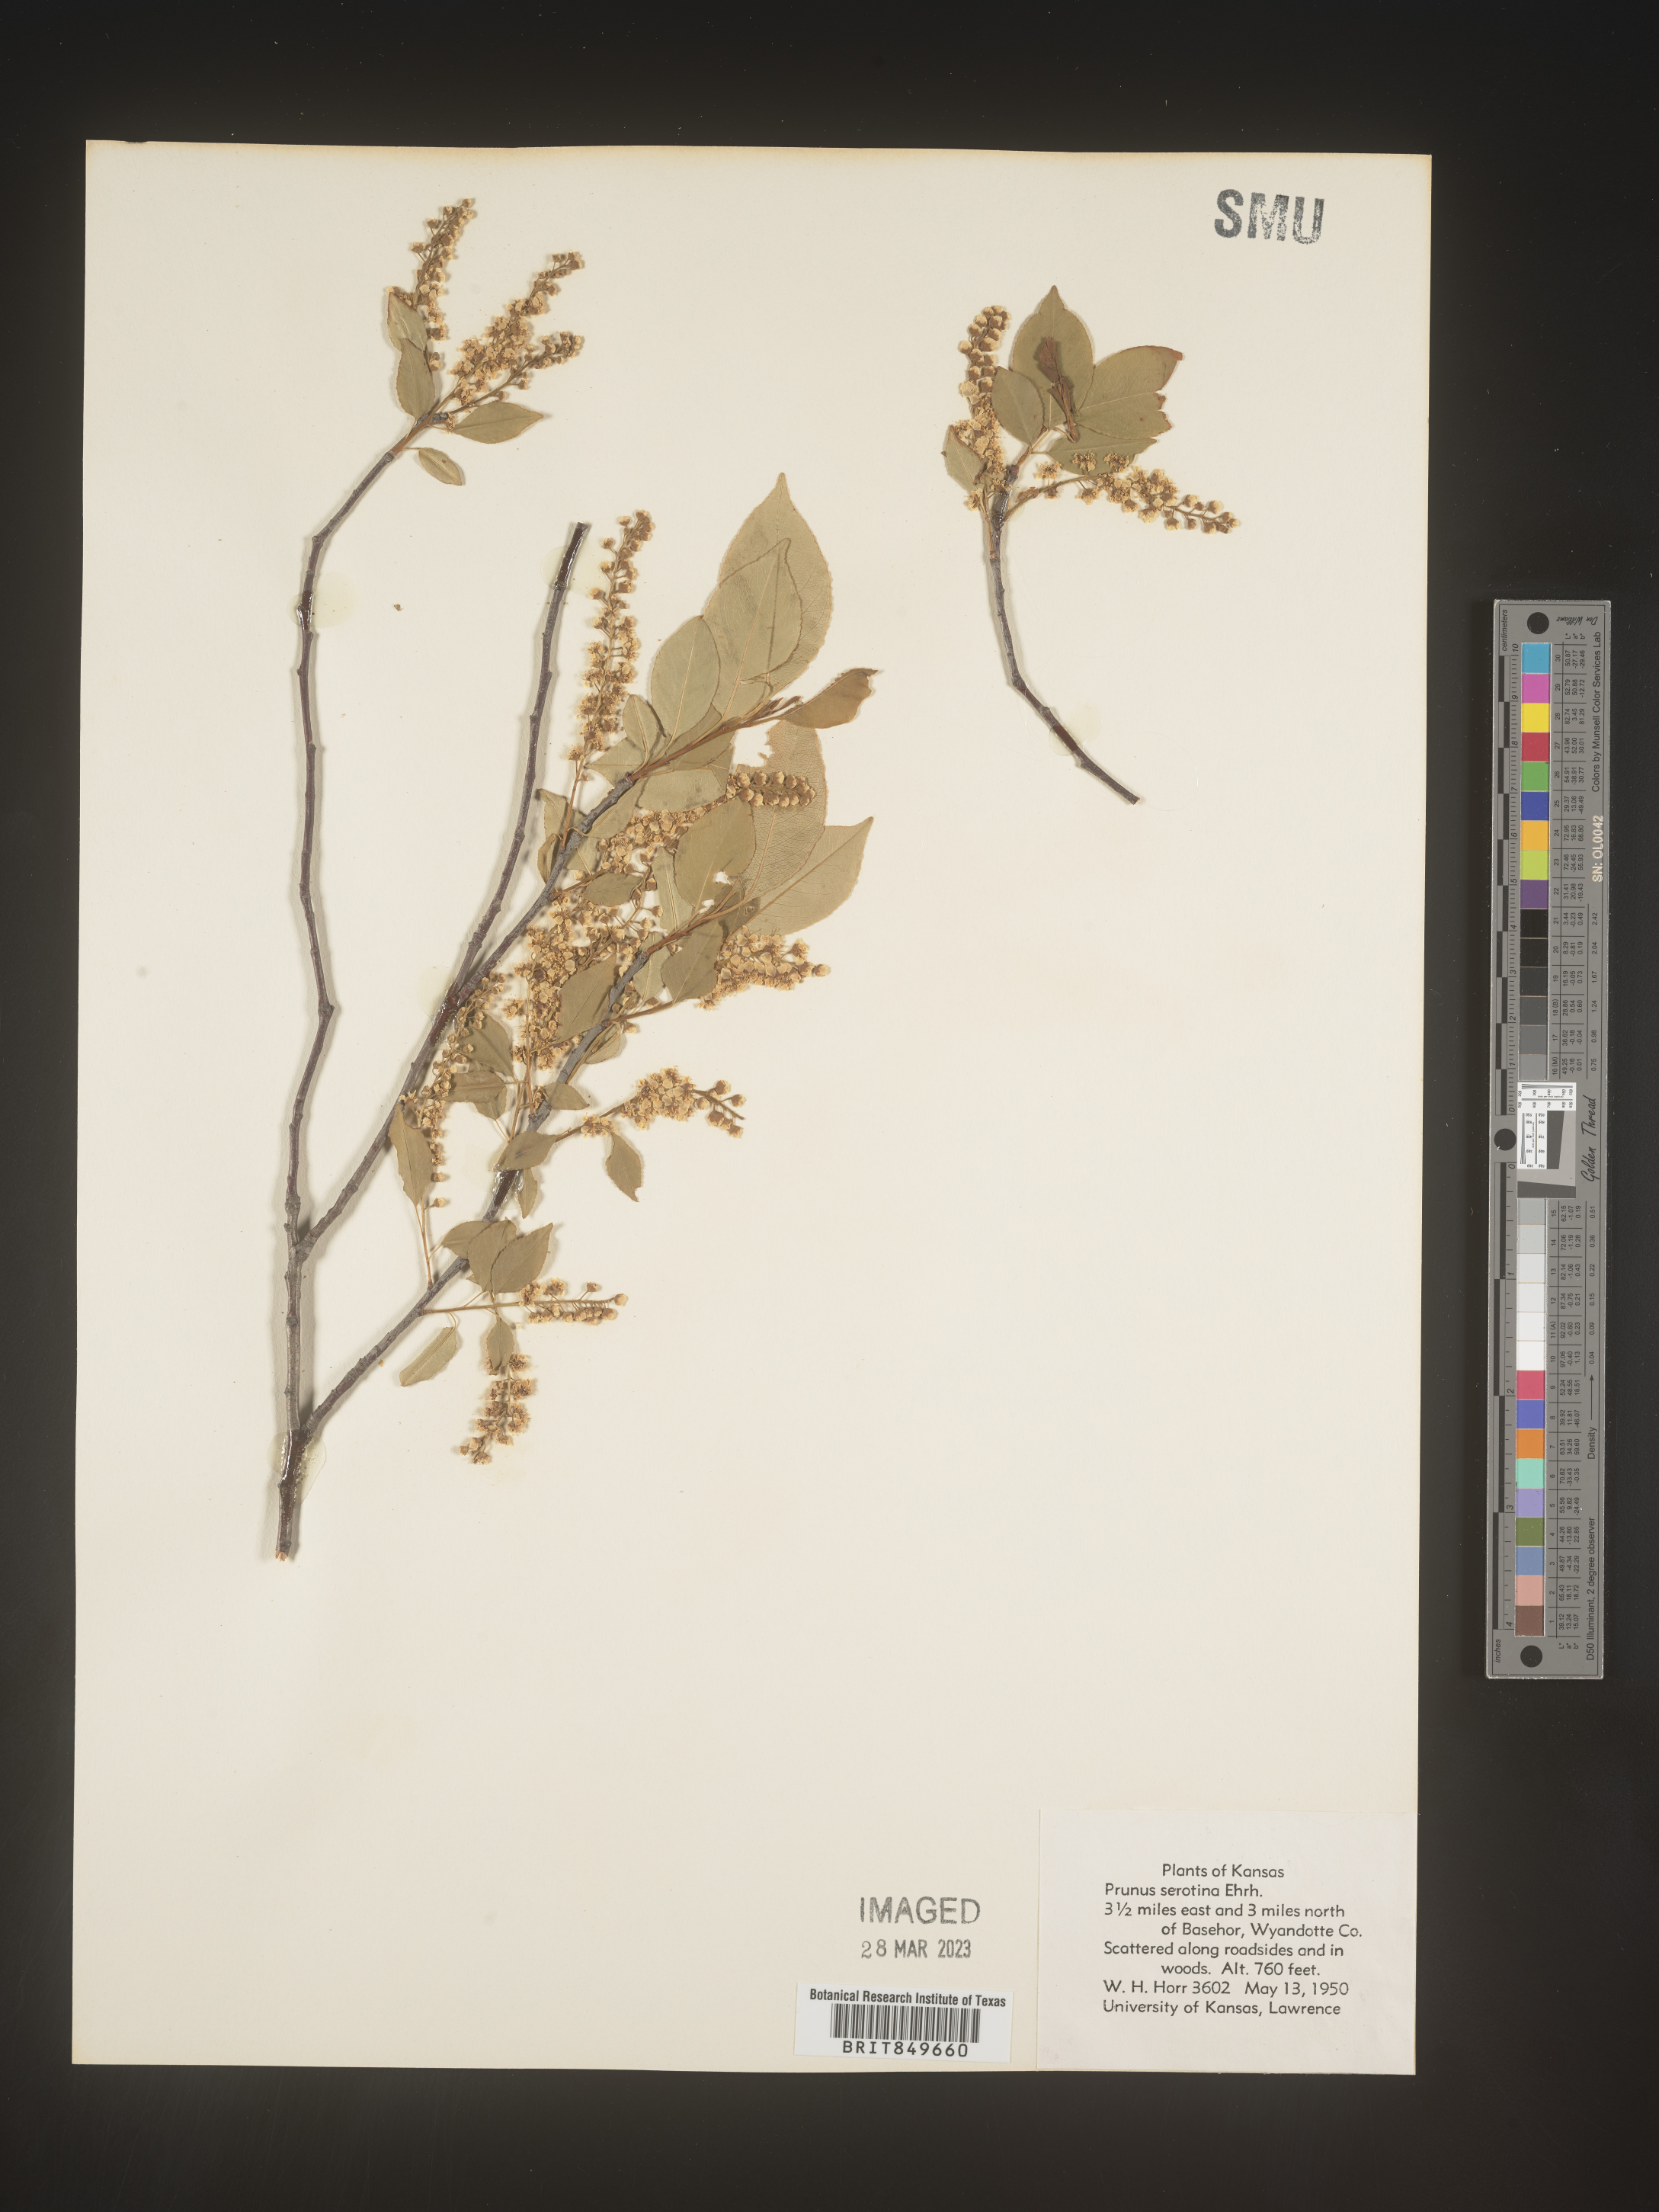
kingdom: Plantae
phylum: Tracheophyta
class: Magnoliopsida
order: Rosales
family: Rosaceae
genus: Prunus
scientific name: Prunus serotina
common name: Black cherry
